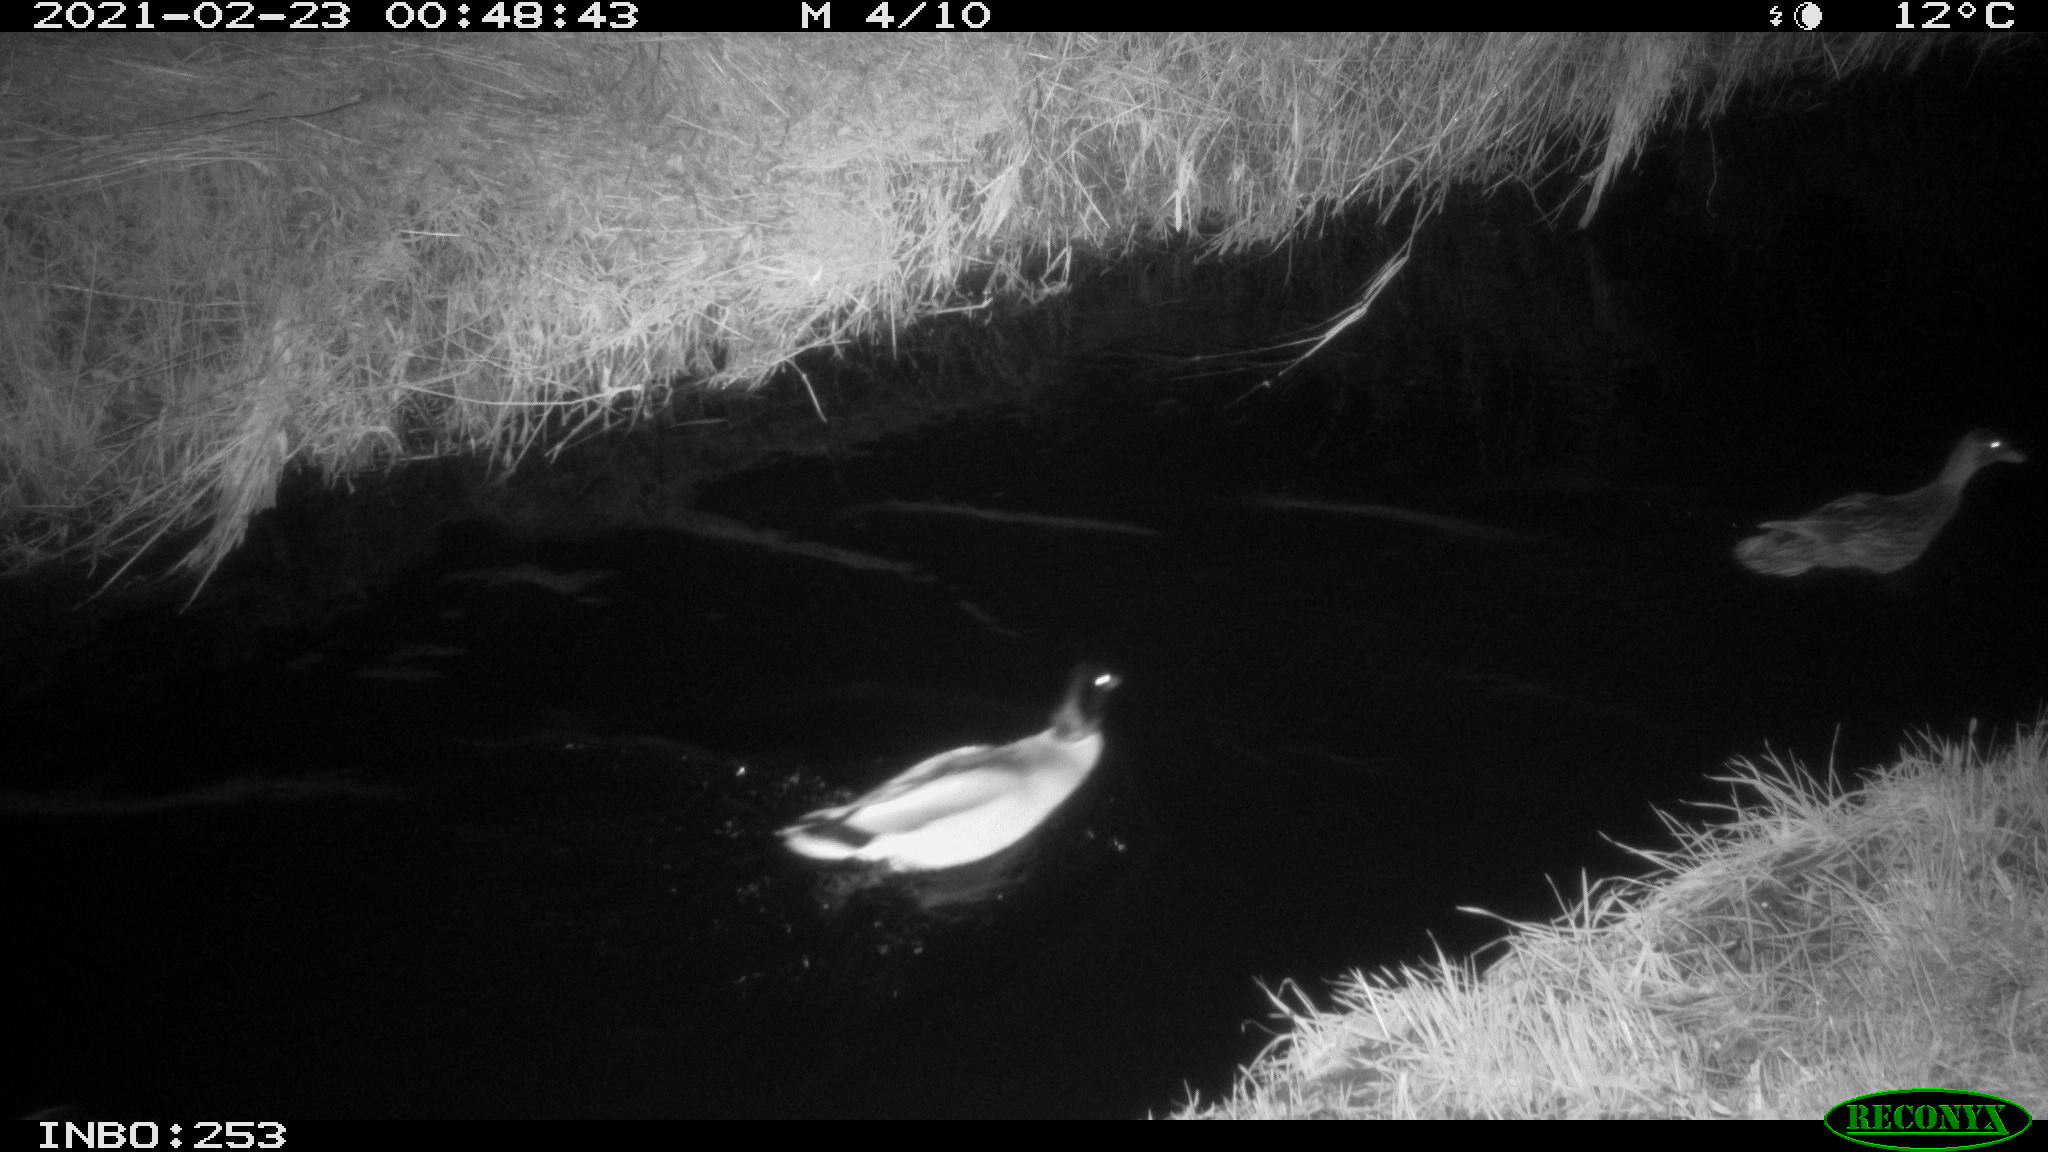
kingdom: Animalia
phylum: Chordata
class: Aves
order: Anseriformes
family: Anatidae
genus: Anas
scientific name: Anas platyrhynchos
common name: Mallard
